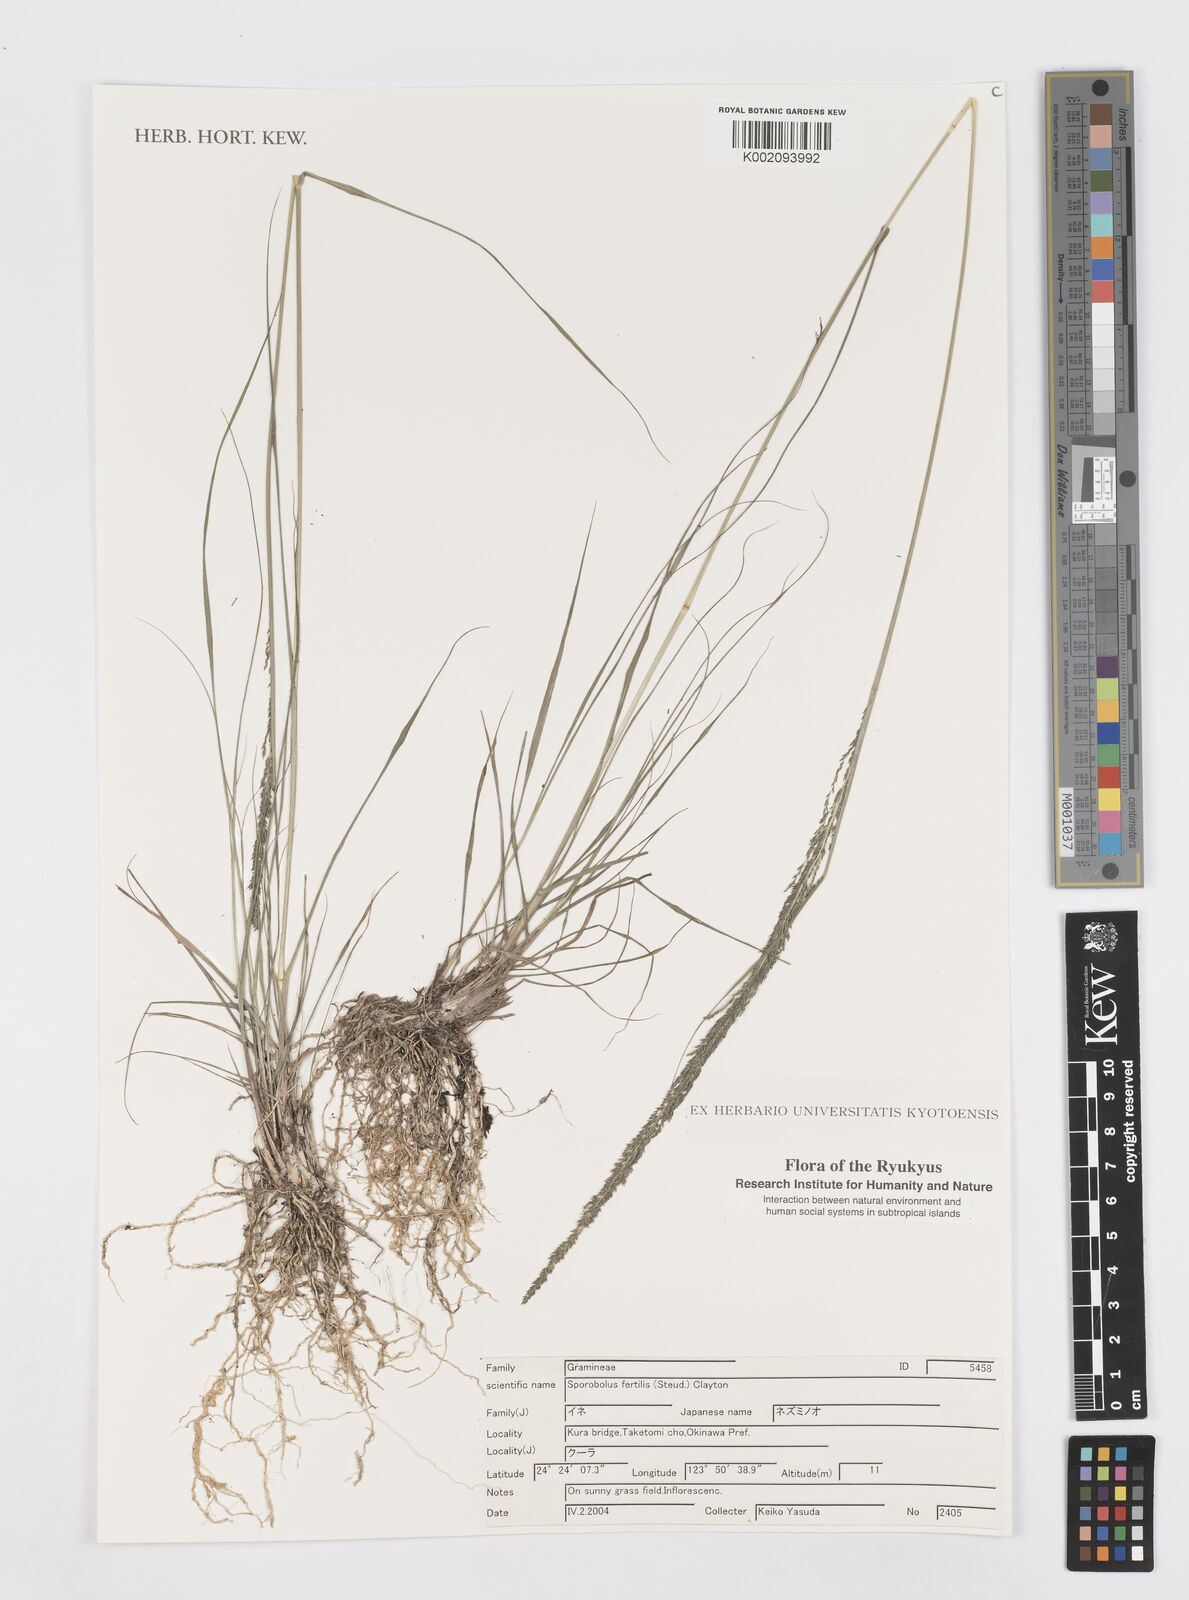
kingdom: Plantae
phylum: Tracheophyta
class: Liliopsida
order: Poales
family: Poaceae
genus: Sporobolus
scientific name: Sporobolus fertilis
